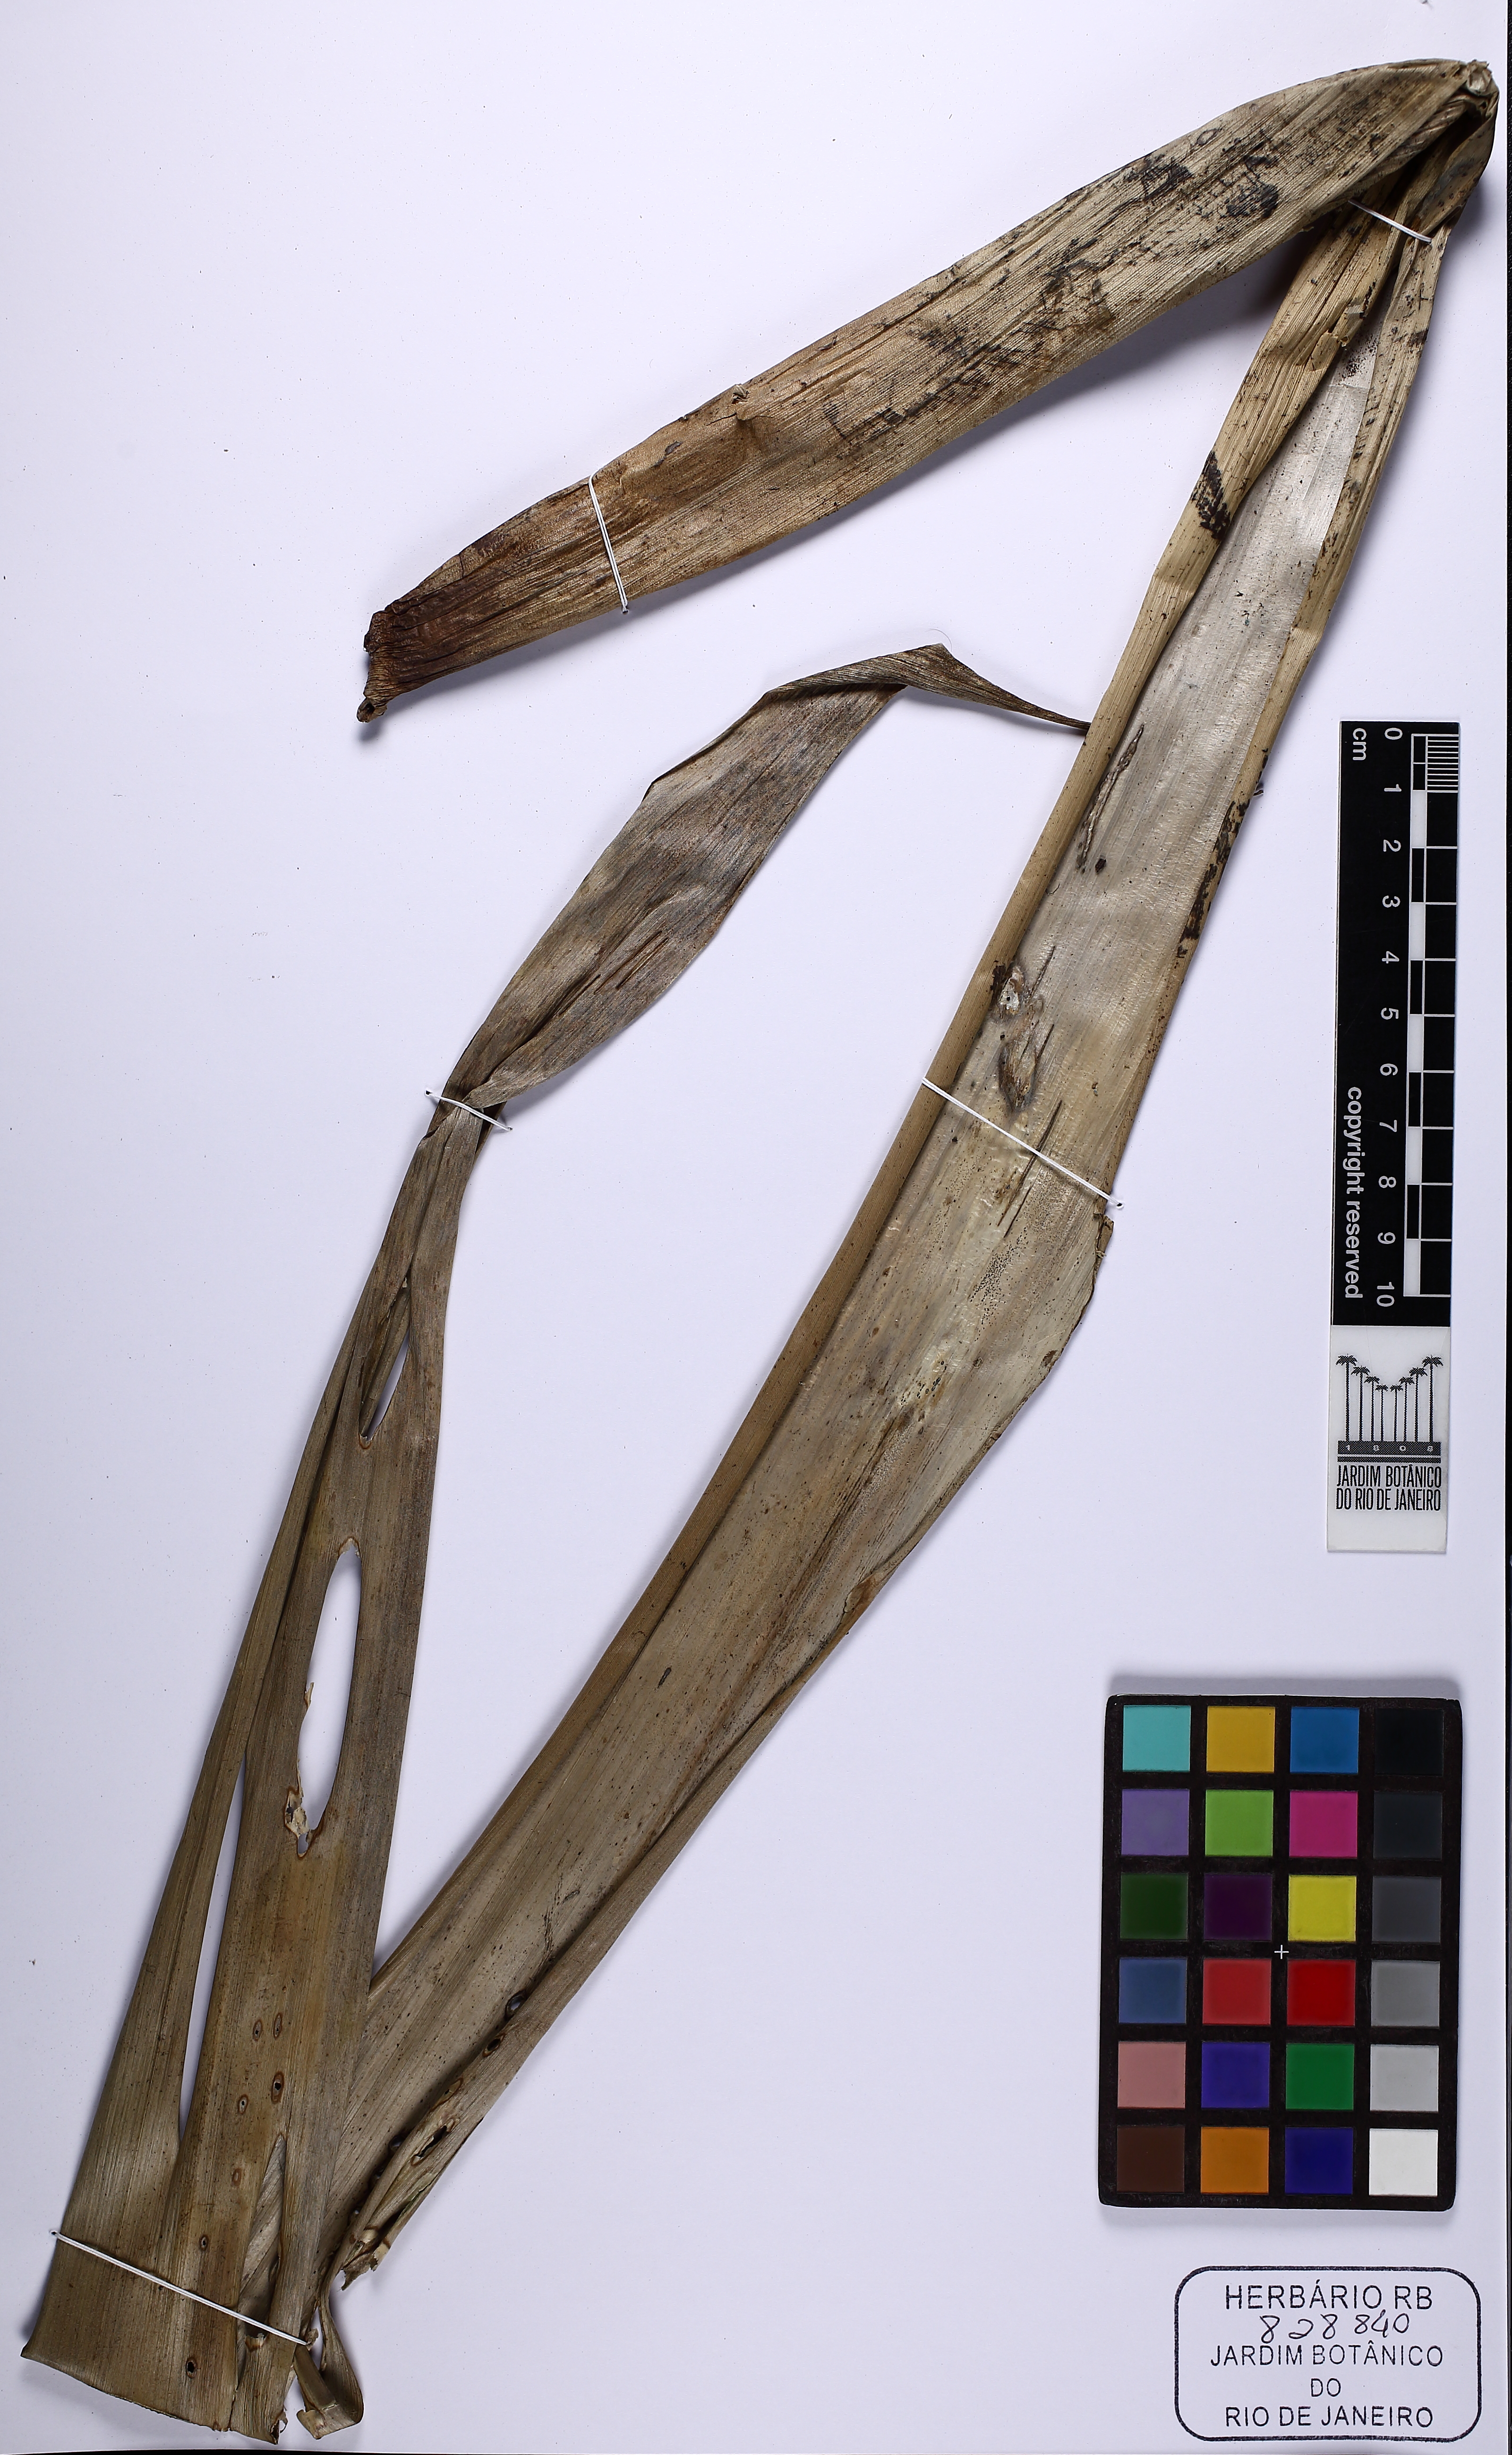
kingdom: Plantae
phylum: Tracheophyta
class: Liliopsida
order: Poales
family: Bromeliaceae
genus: Alcantarea
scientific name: Alcantarea glaziouana
